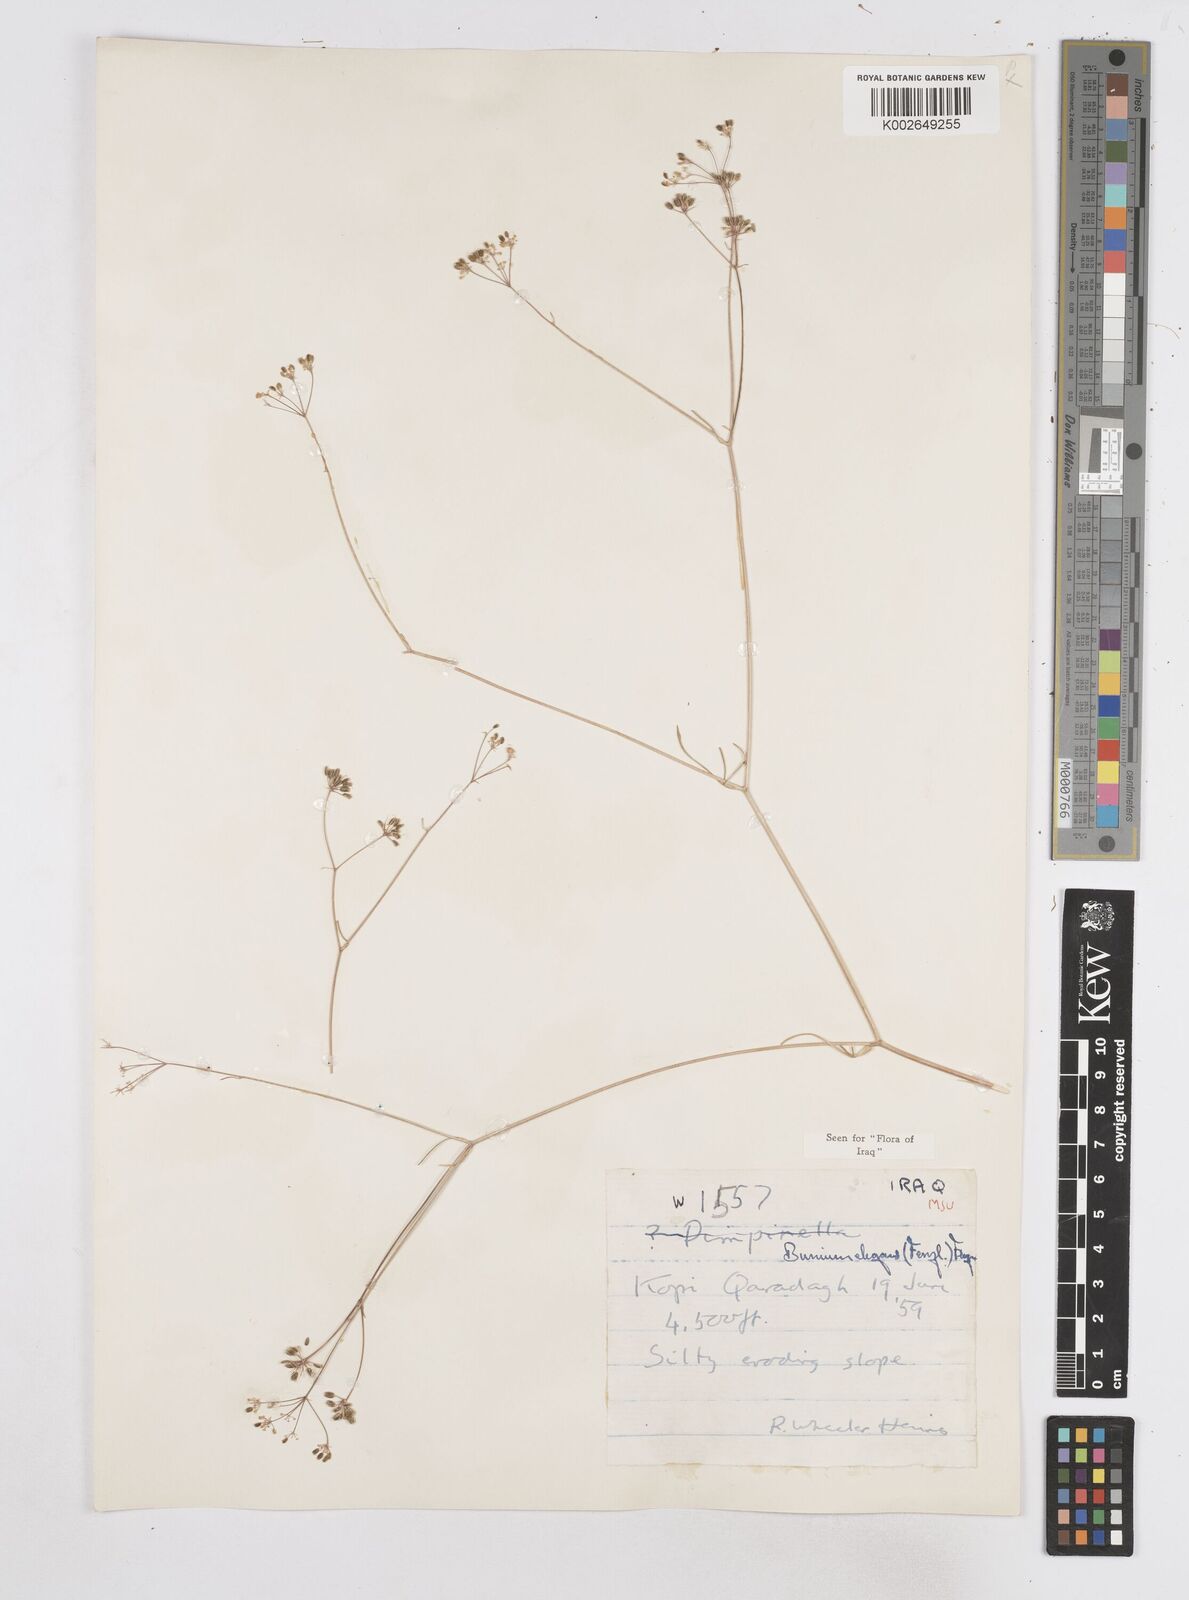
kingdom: Plantae
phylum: Tracheophyta
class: Magnoliopsida
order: Apiales
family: Apiaceae
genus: Bunium
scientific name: Bunium paucifolium
